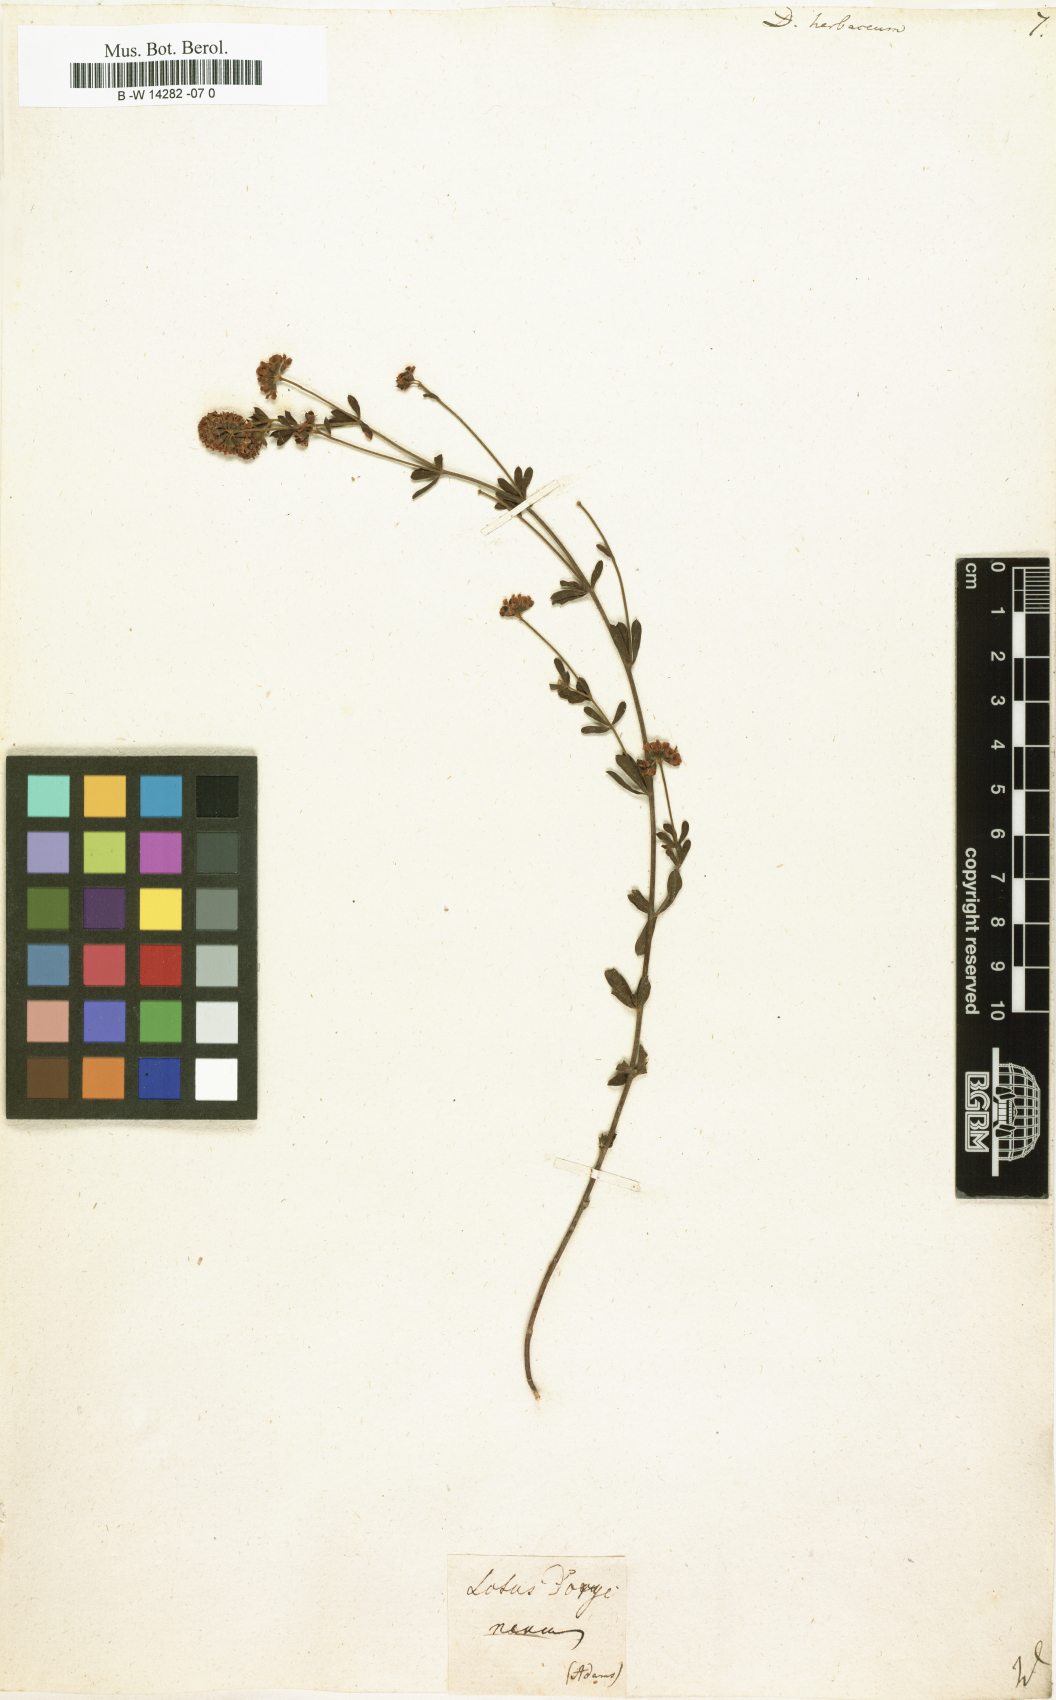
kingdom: Plantae
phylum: Tracheophyta
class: Magnoliopsida
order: Fabales
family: Fabaceae
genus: Lotus
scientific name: Lotus herbaceus
